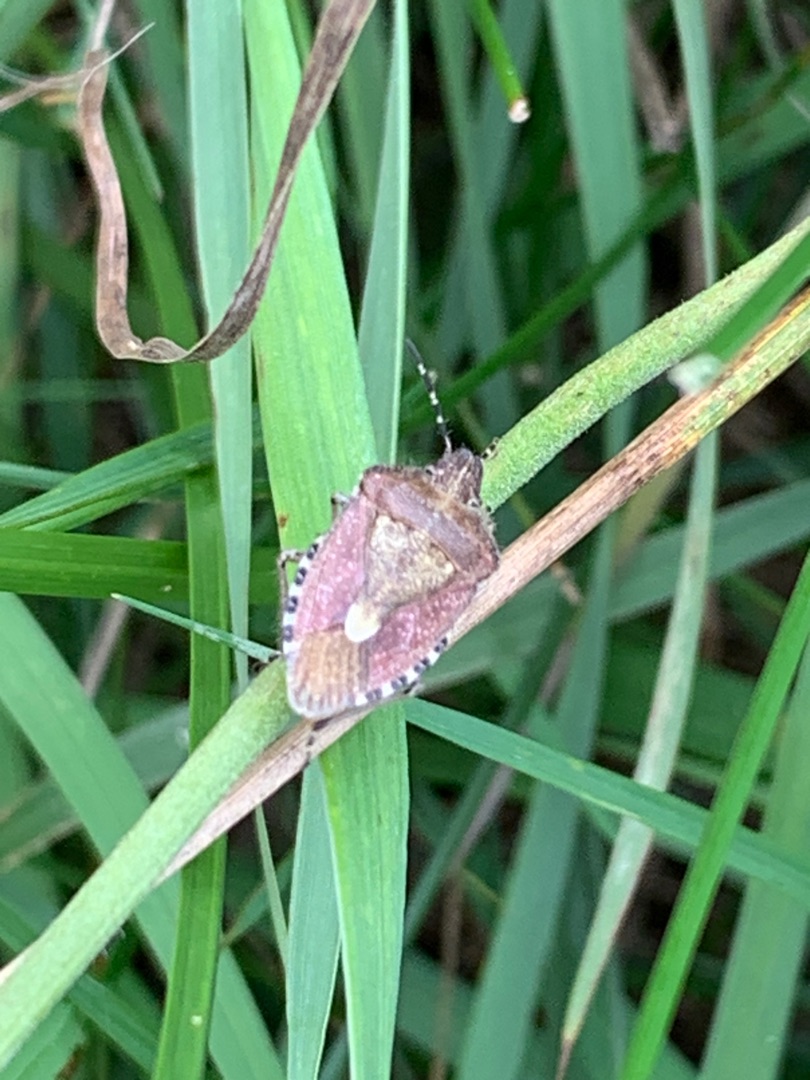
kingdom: Animalia
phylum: Arthropoda
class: Insecta
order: Hemiptera
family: Pentatomidae
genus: Dolycoris
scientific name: Dolycoris baccarum
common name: Almindelig bærtæge
